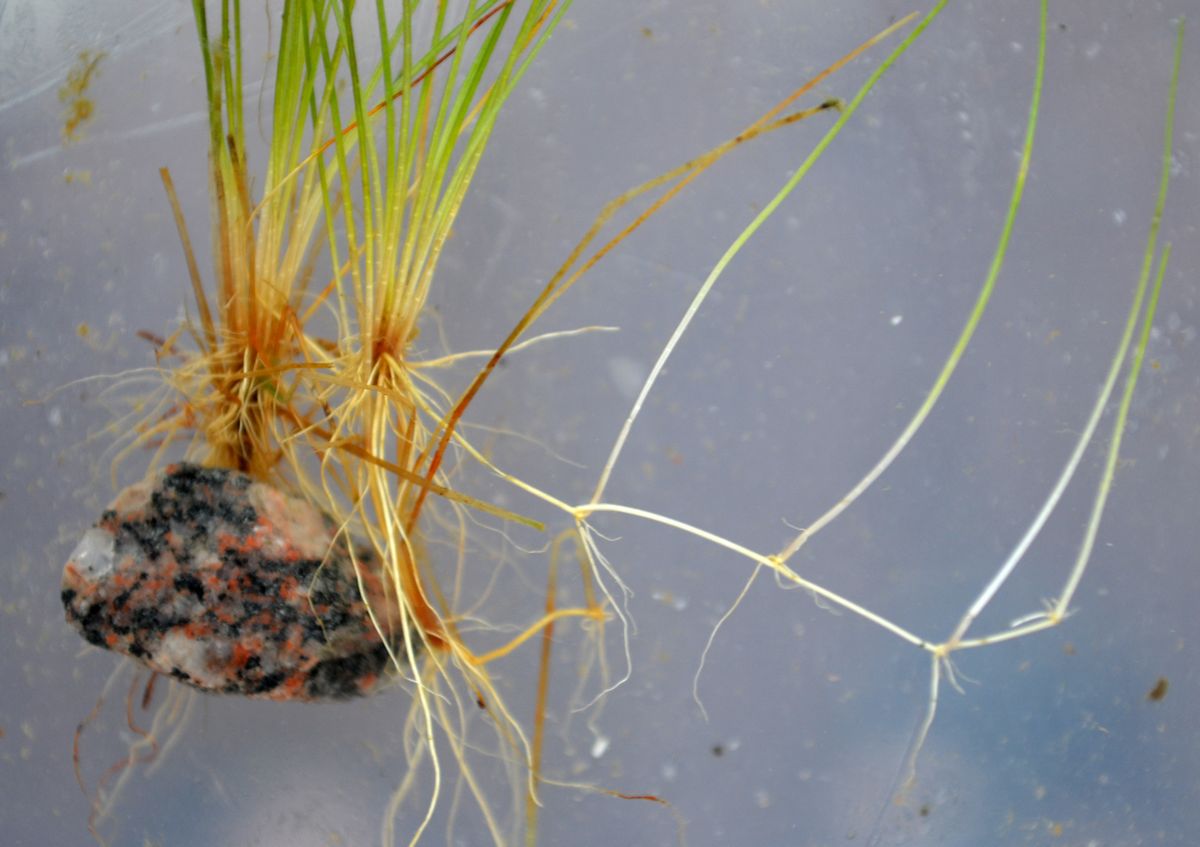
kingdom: Plantae
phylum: Tracheophyta
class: Liliopsida
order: Poales
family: Cyperaceae
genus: Eleocharis
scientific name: Eleocharis acicularis
